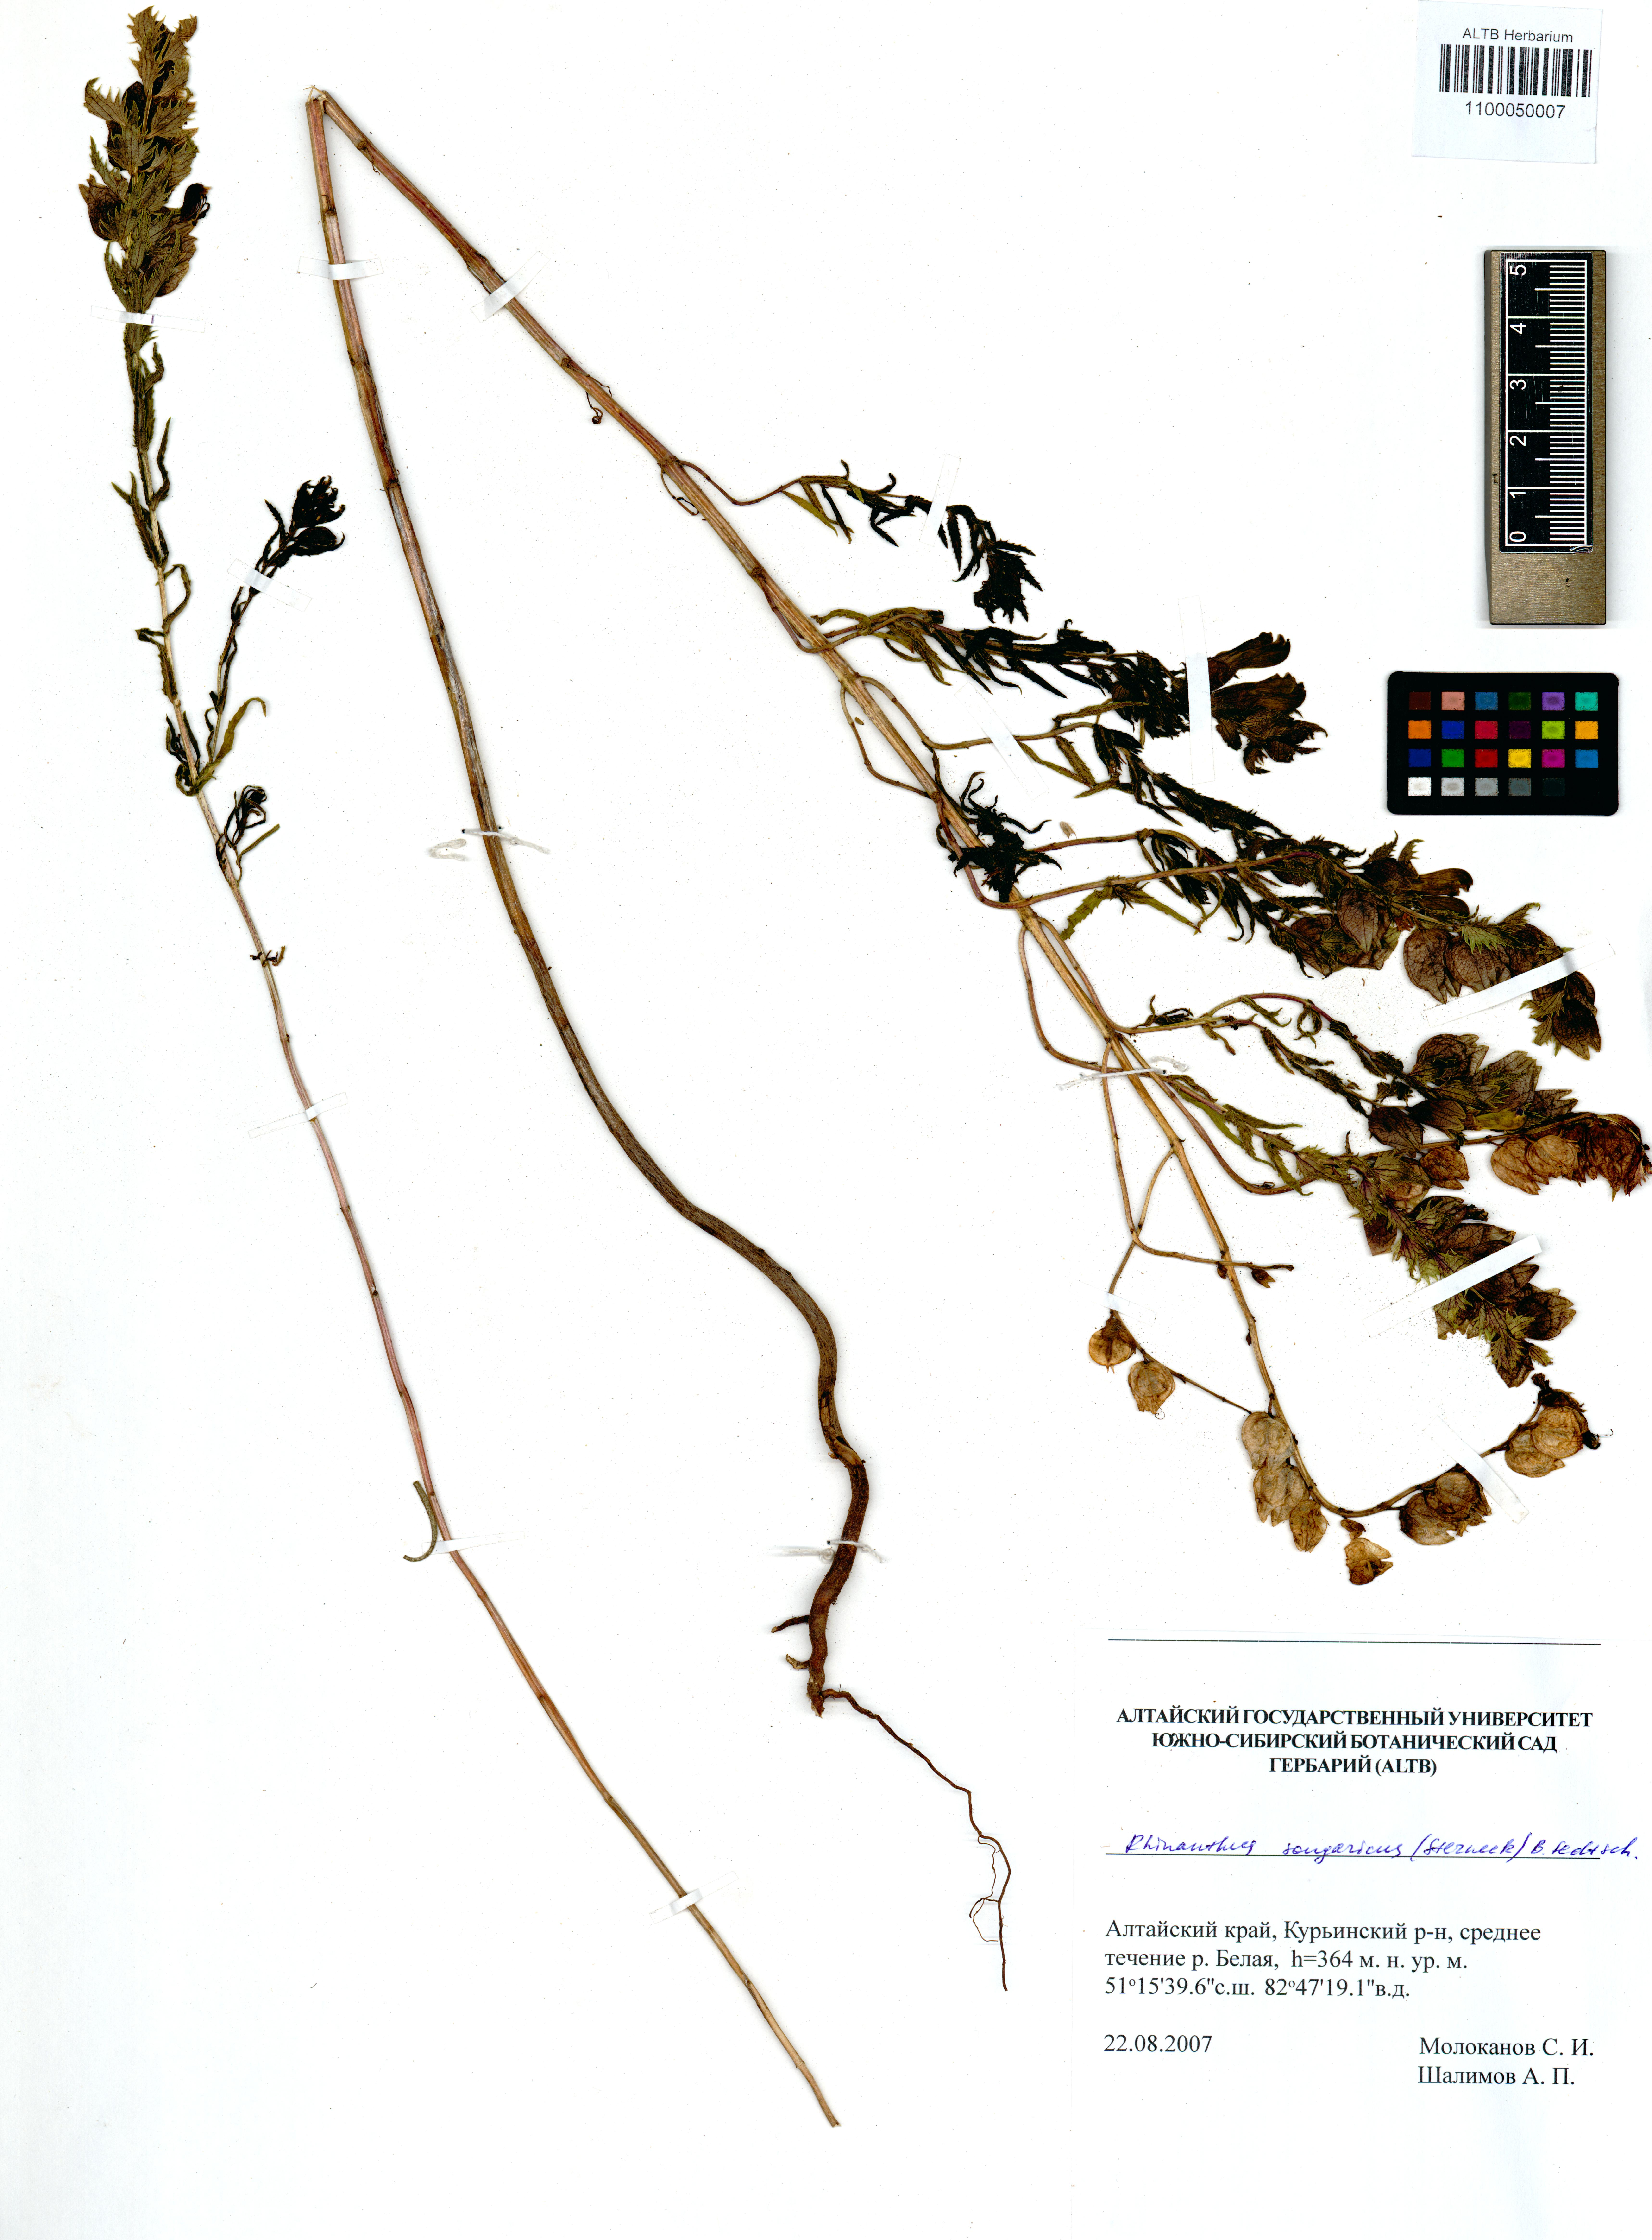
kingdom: Plantae
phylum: Tracheophyta
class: Magnoliopsida
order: Lamiales
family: Orobanchaceae
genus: Rhinanthus
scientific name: Rhinanthus songaricus
